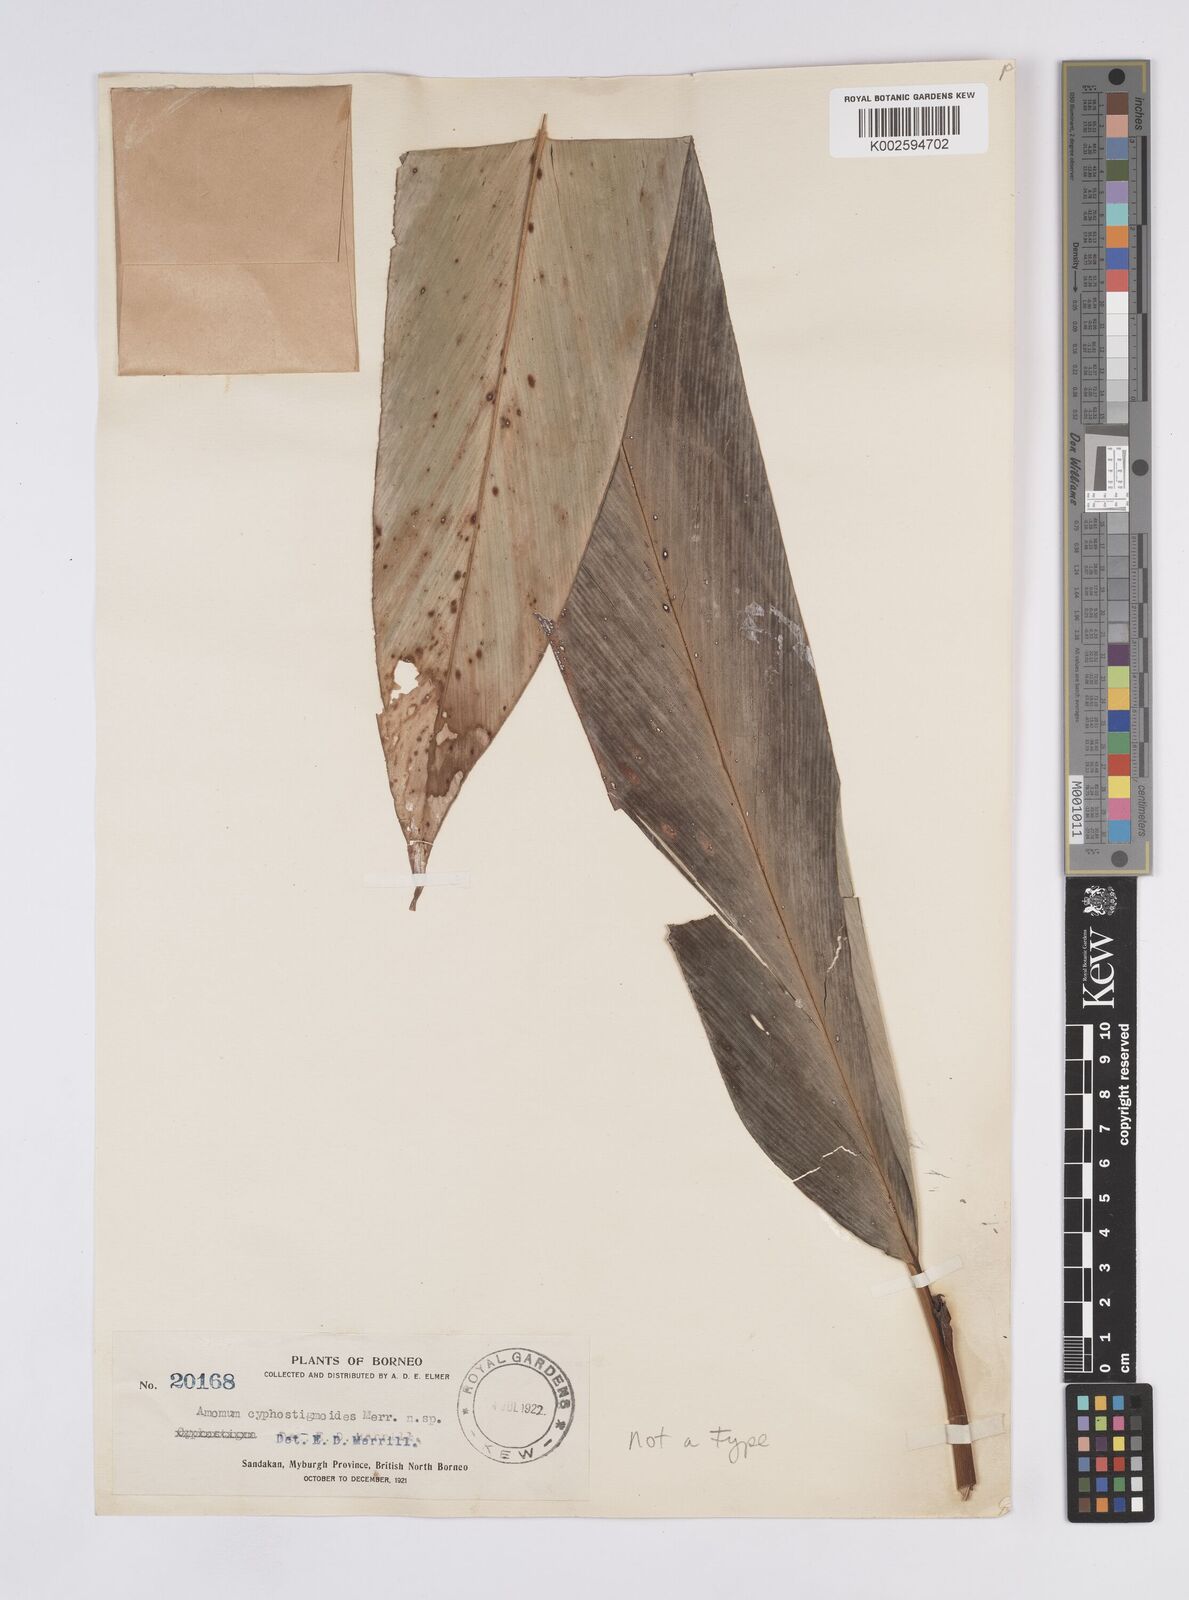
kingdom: Plantae
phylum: Tracheophyta
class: Liliopsida
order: Zingiberales
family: Zingiberaceae
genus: Elettaria
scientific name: Elettaria
